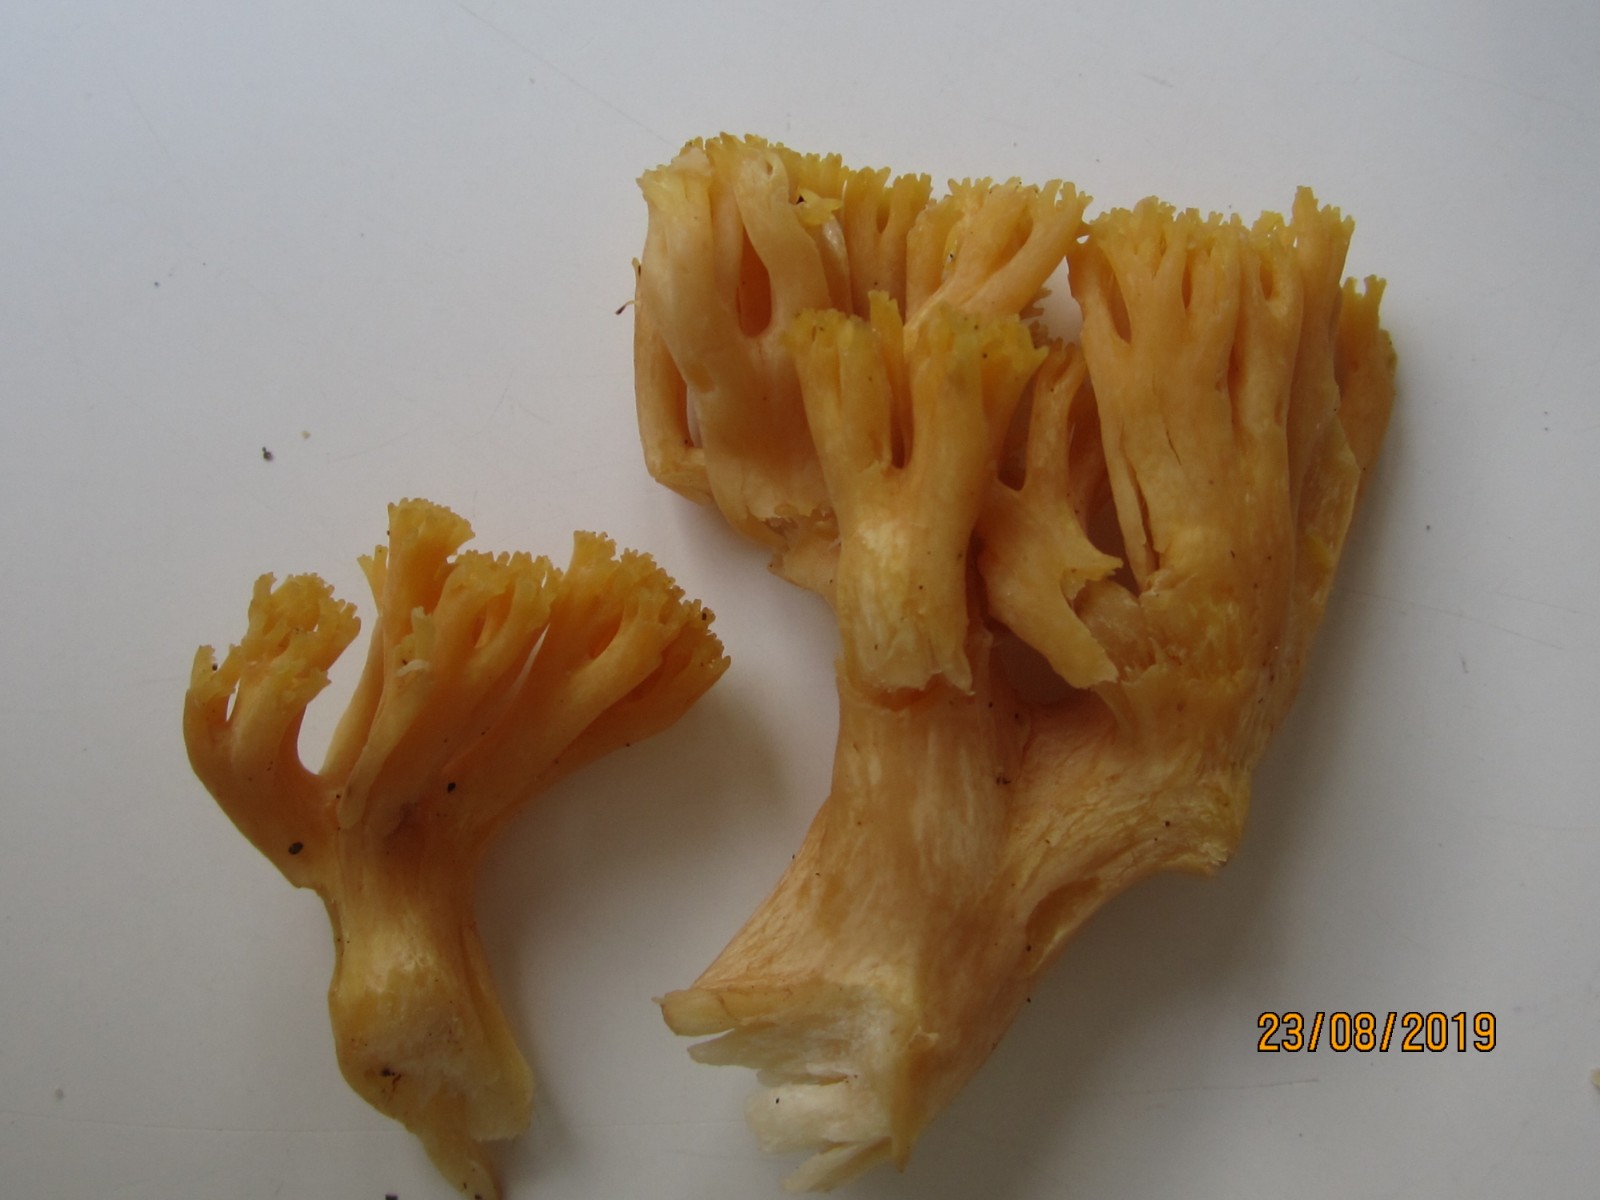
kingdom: Fungi
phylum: Basidiomycota
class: Agaricomycetes
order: Gomphales
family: Gomphaceae
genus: Ramaria
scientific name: Ramaria
